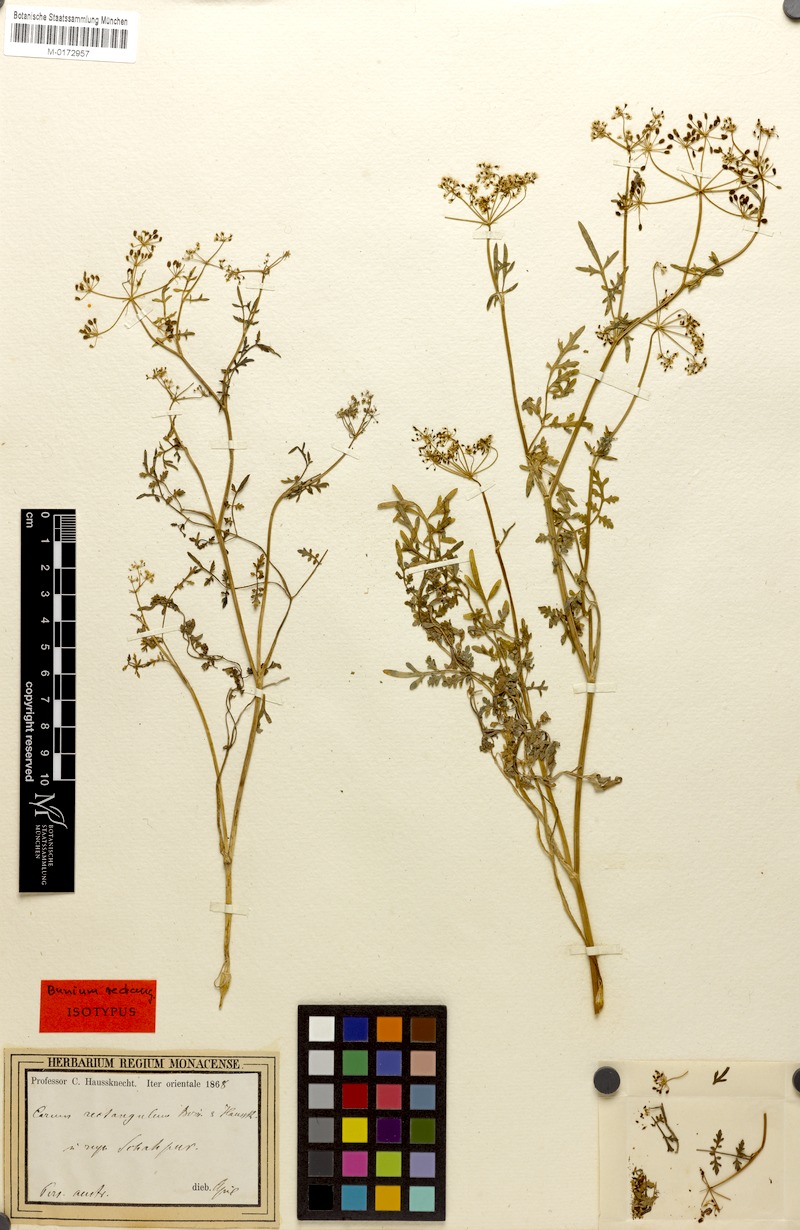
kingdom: Plantae
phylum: Tracheophyta
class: Magnoliopsida
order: Apiales
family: Apiaceae
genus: Bunium
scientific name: Bunium rectangulum
